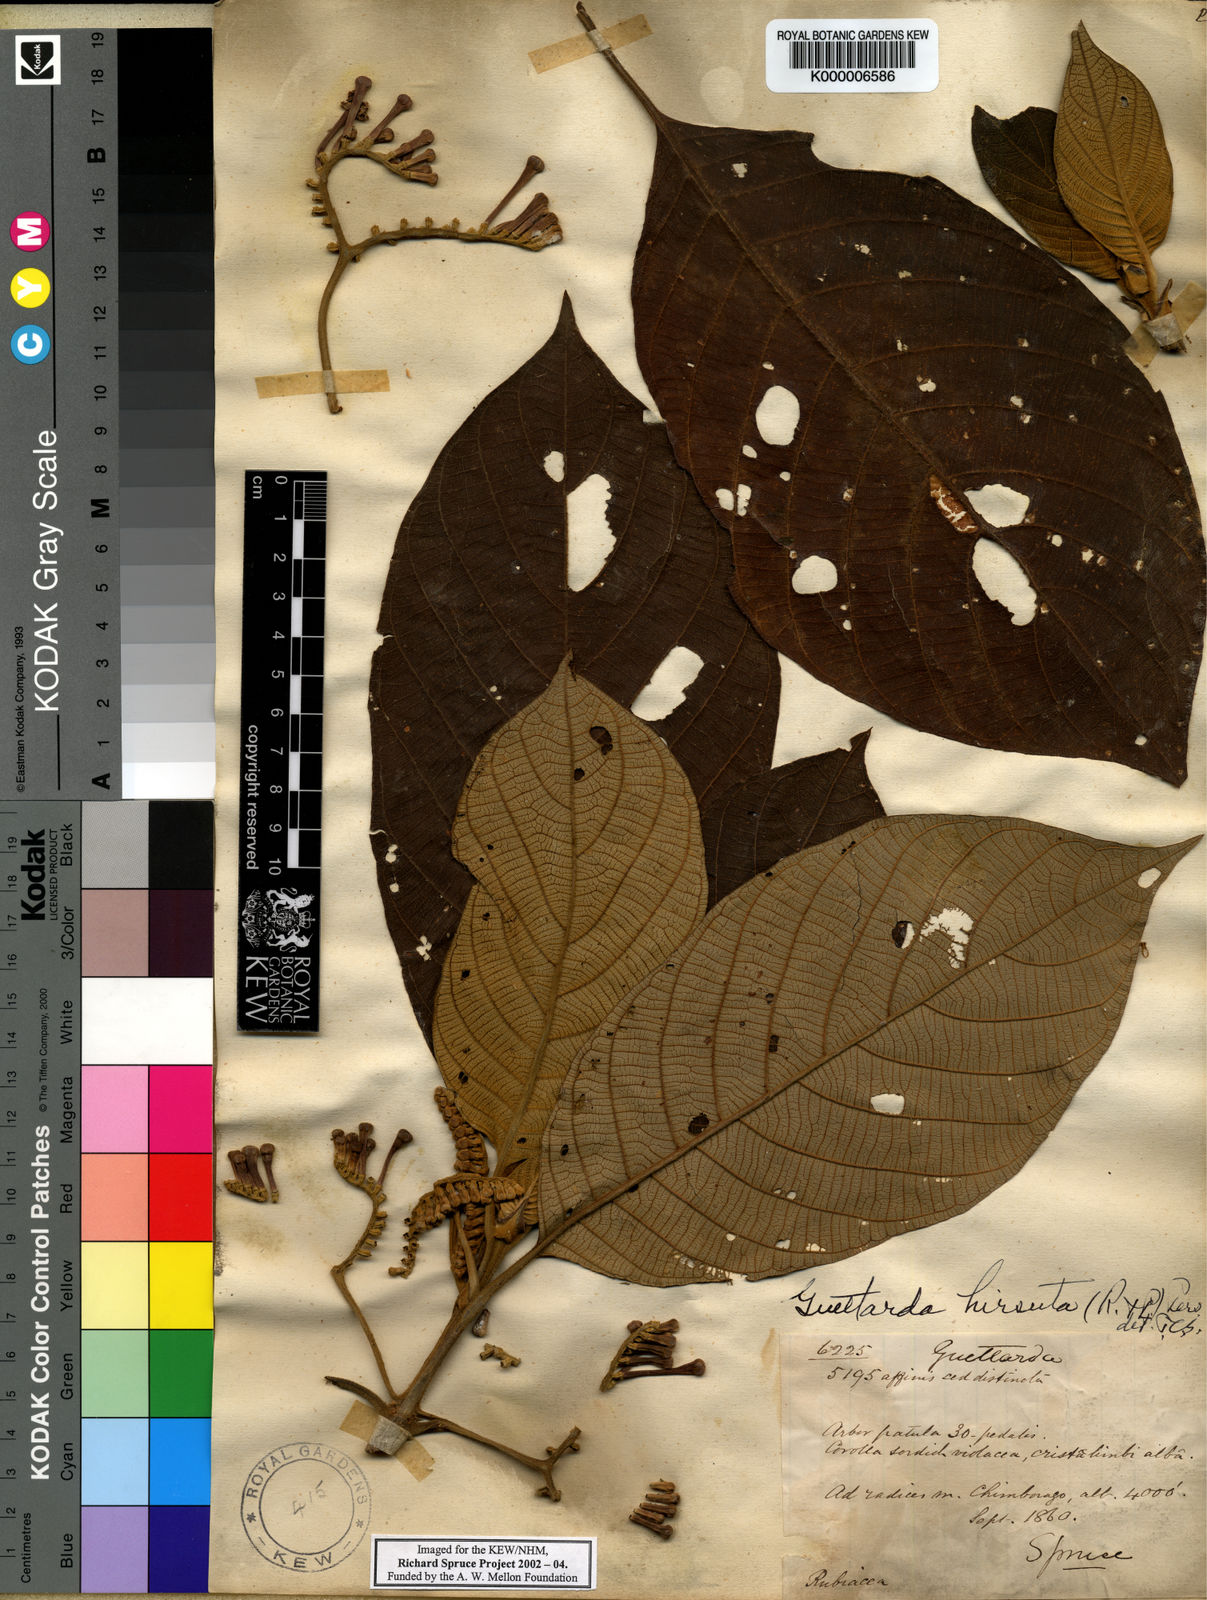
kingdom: Plantae
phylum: Tracheophyta
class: Magnoliopsida
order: Gentianales
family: Rubiaceae
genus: Tournefortiopsis
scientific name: Tournefortiopsis hirsuta
